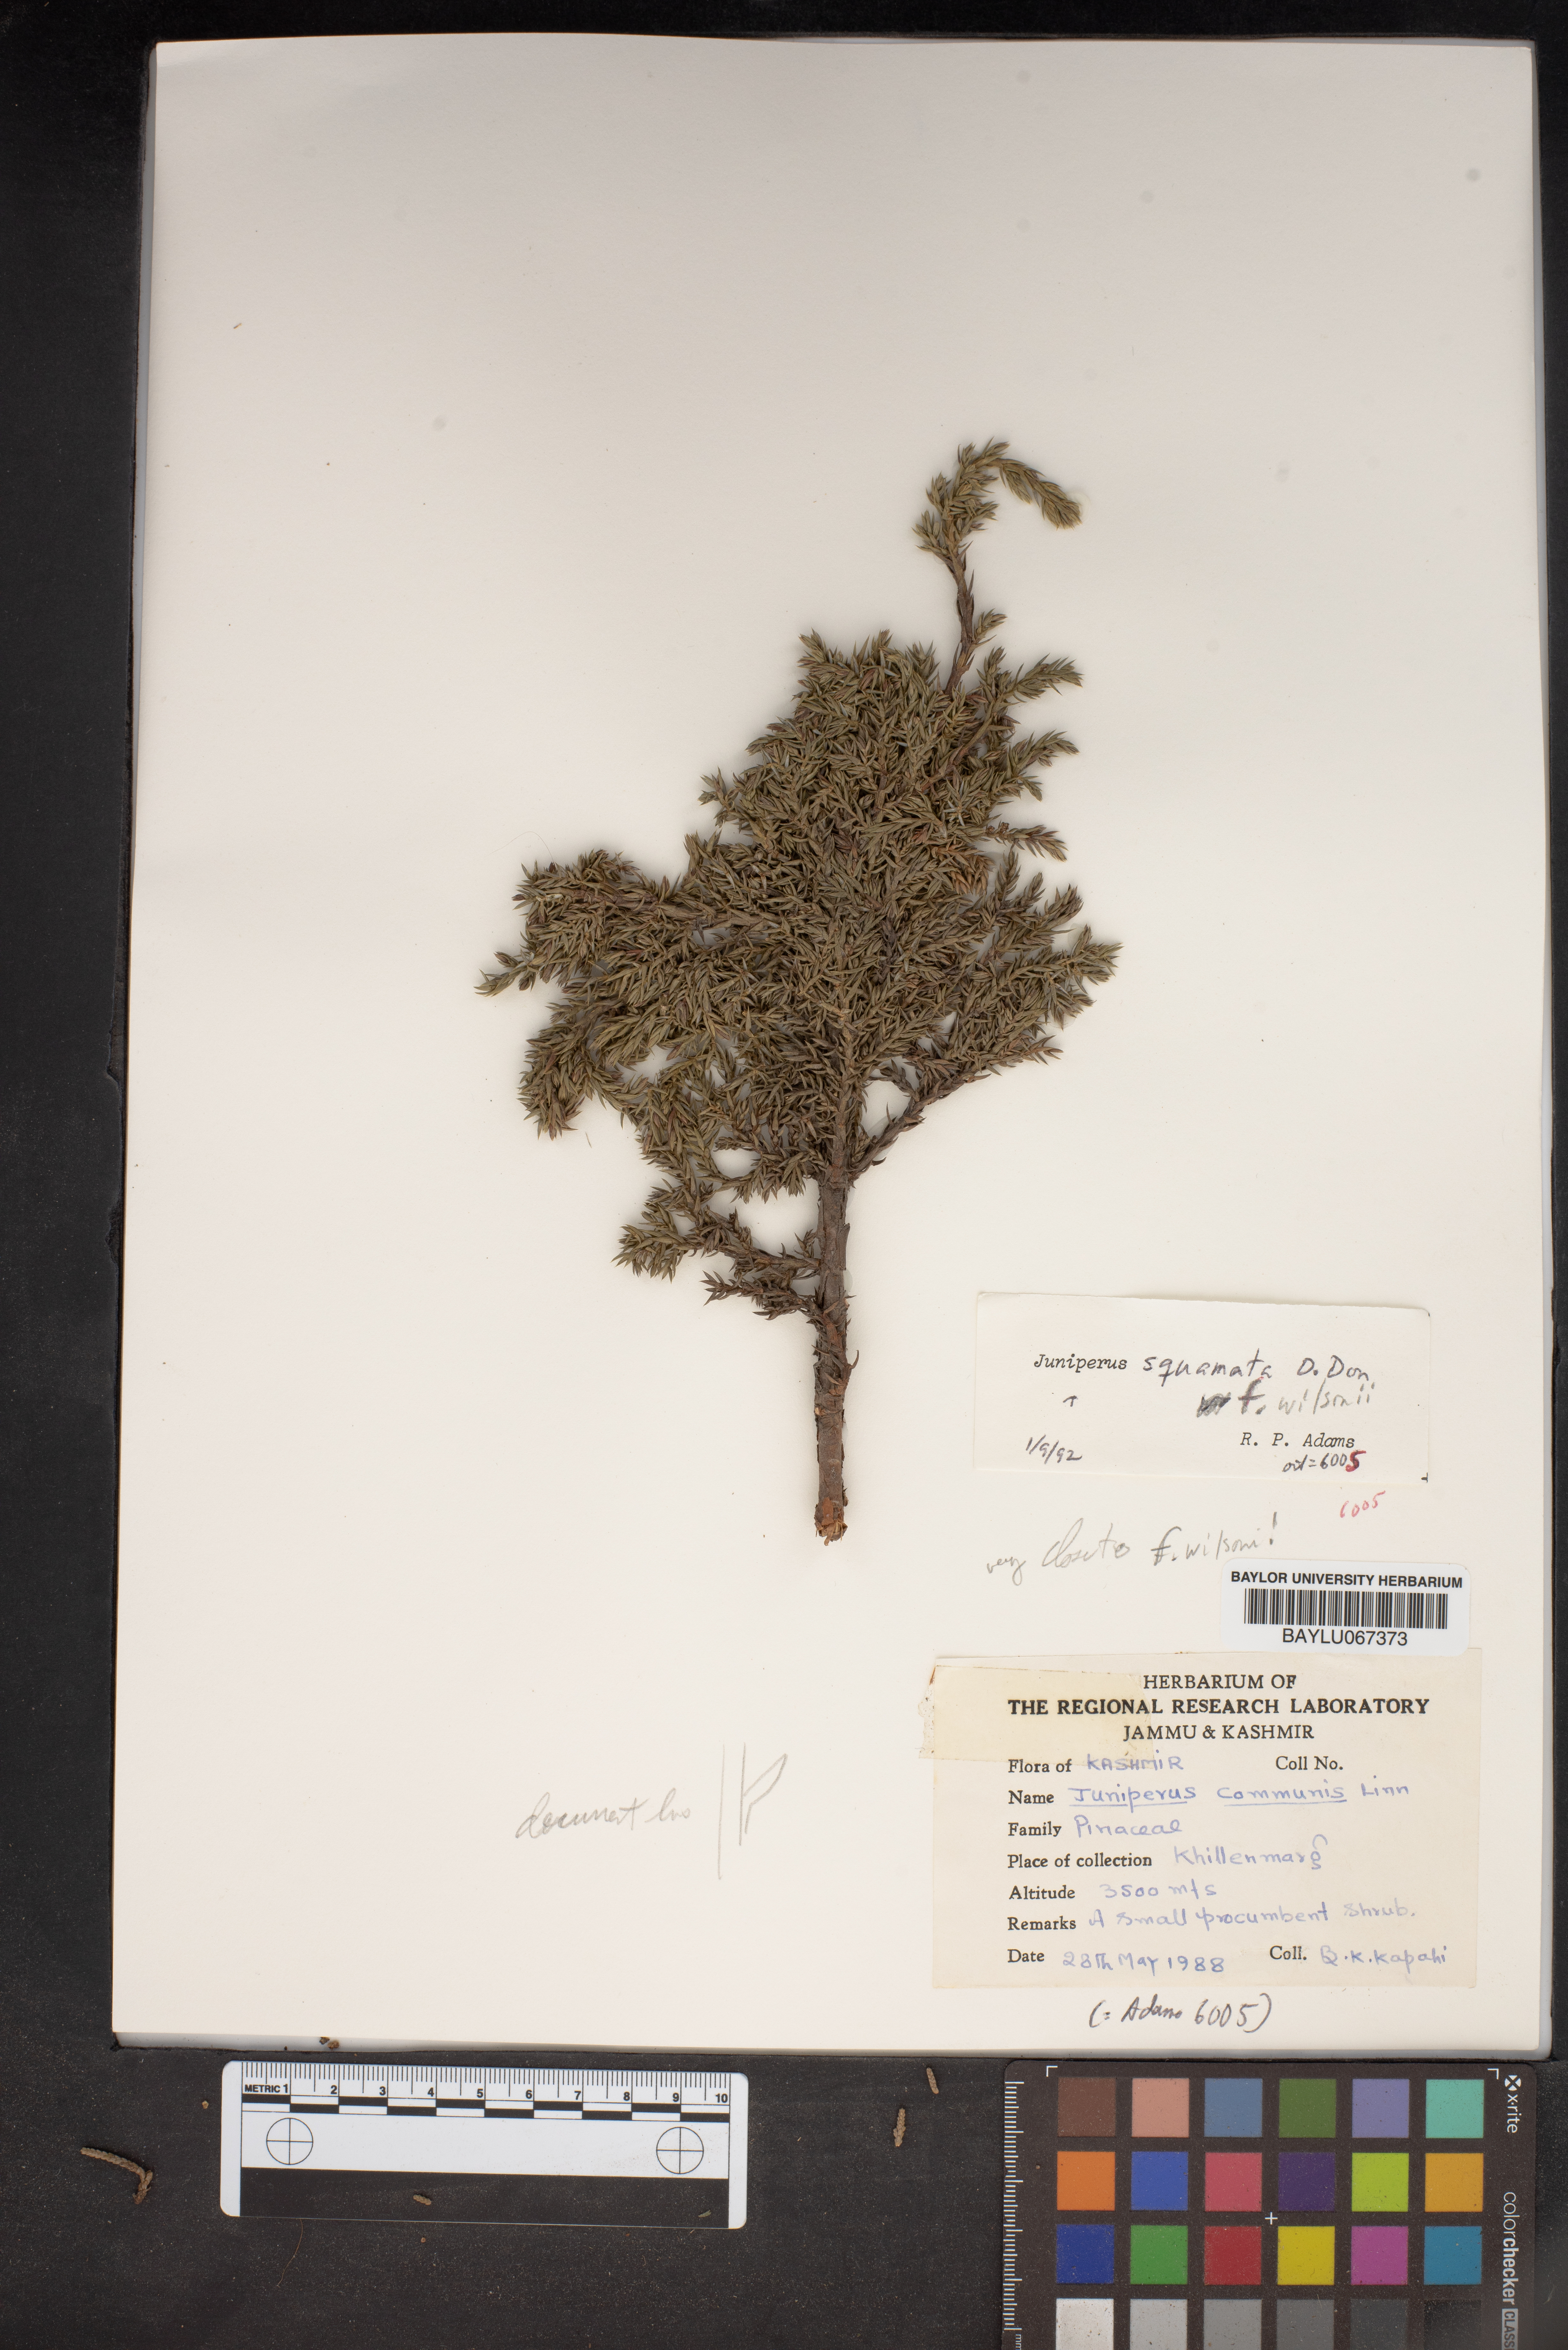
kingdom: Plantae
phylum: Tracheophyta
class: Pinopsida
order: Pinales
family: Cupressaceae
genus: Juniperus
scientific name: Juniperus communis
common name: Common juniper
